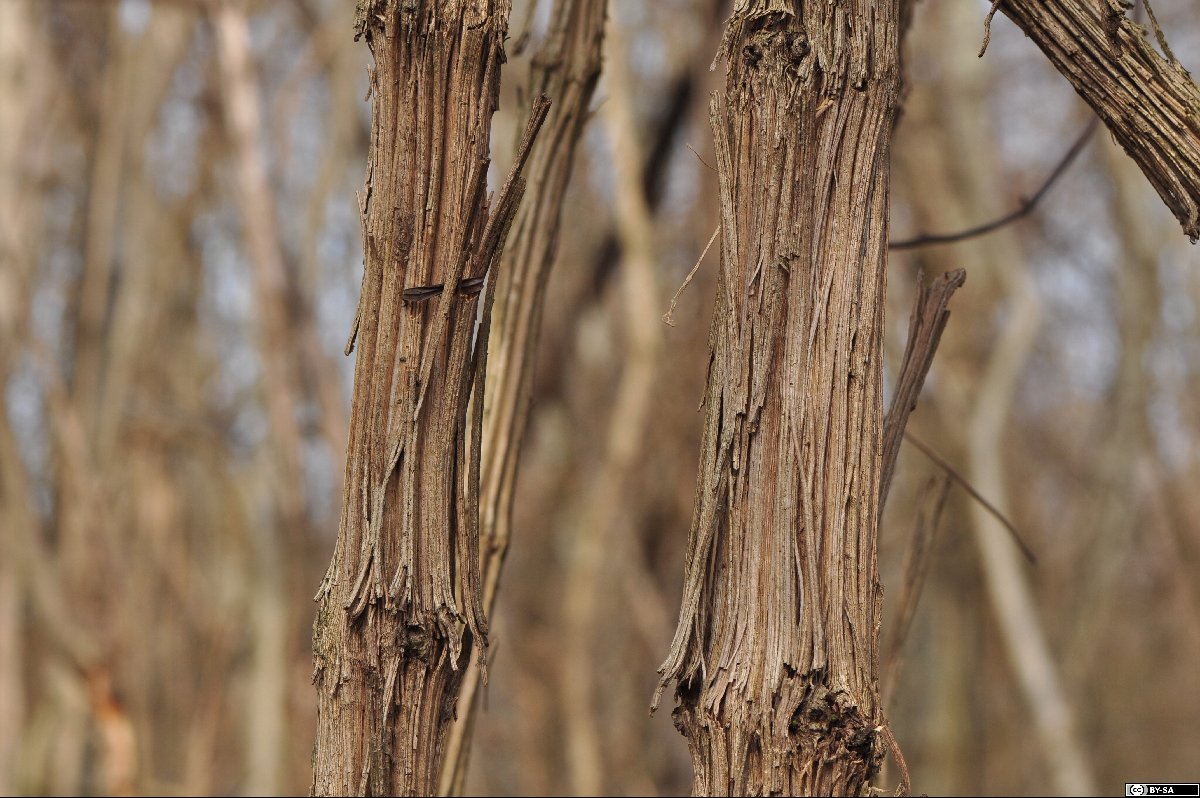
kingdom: Plantae
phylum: Tracheophyta
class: Magnoliopsida
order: Ranunculales
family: Ranunculaceae
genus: Clematis
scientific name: Clematis vitalba
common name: Evergreen clematis
